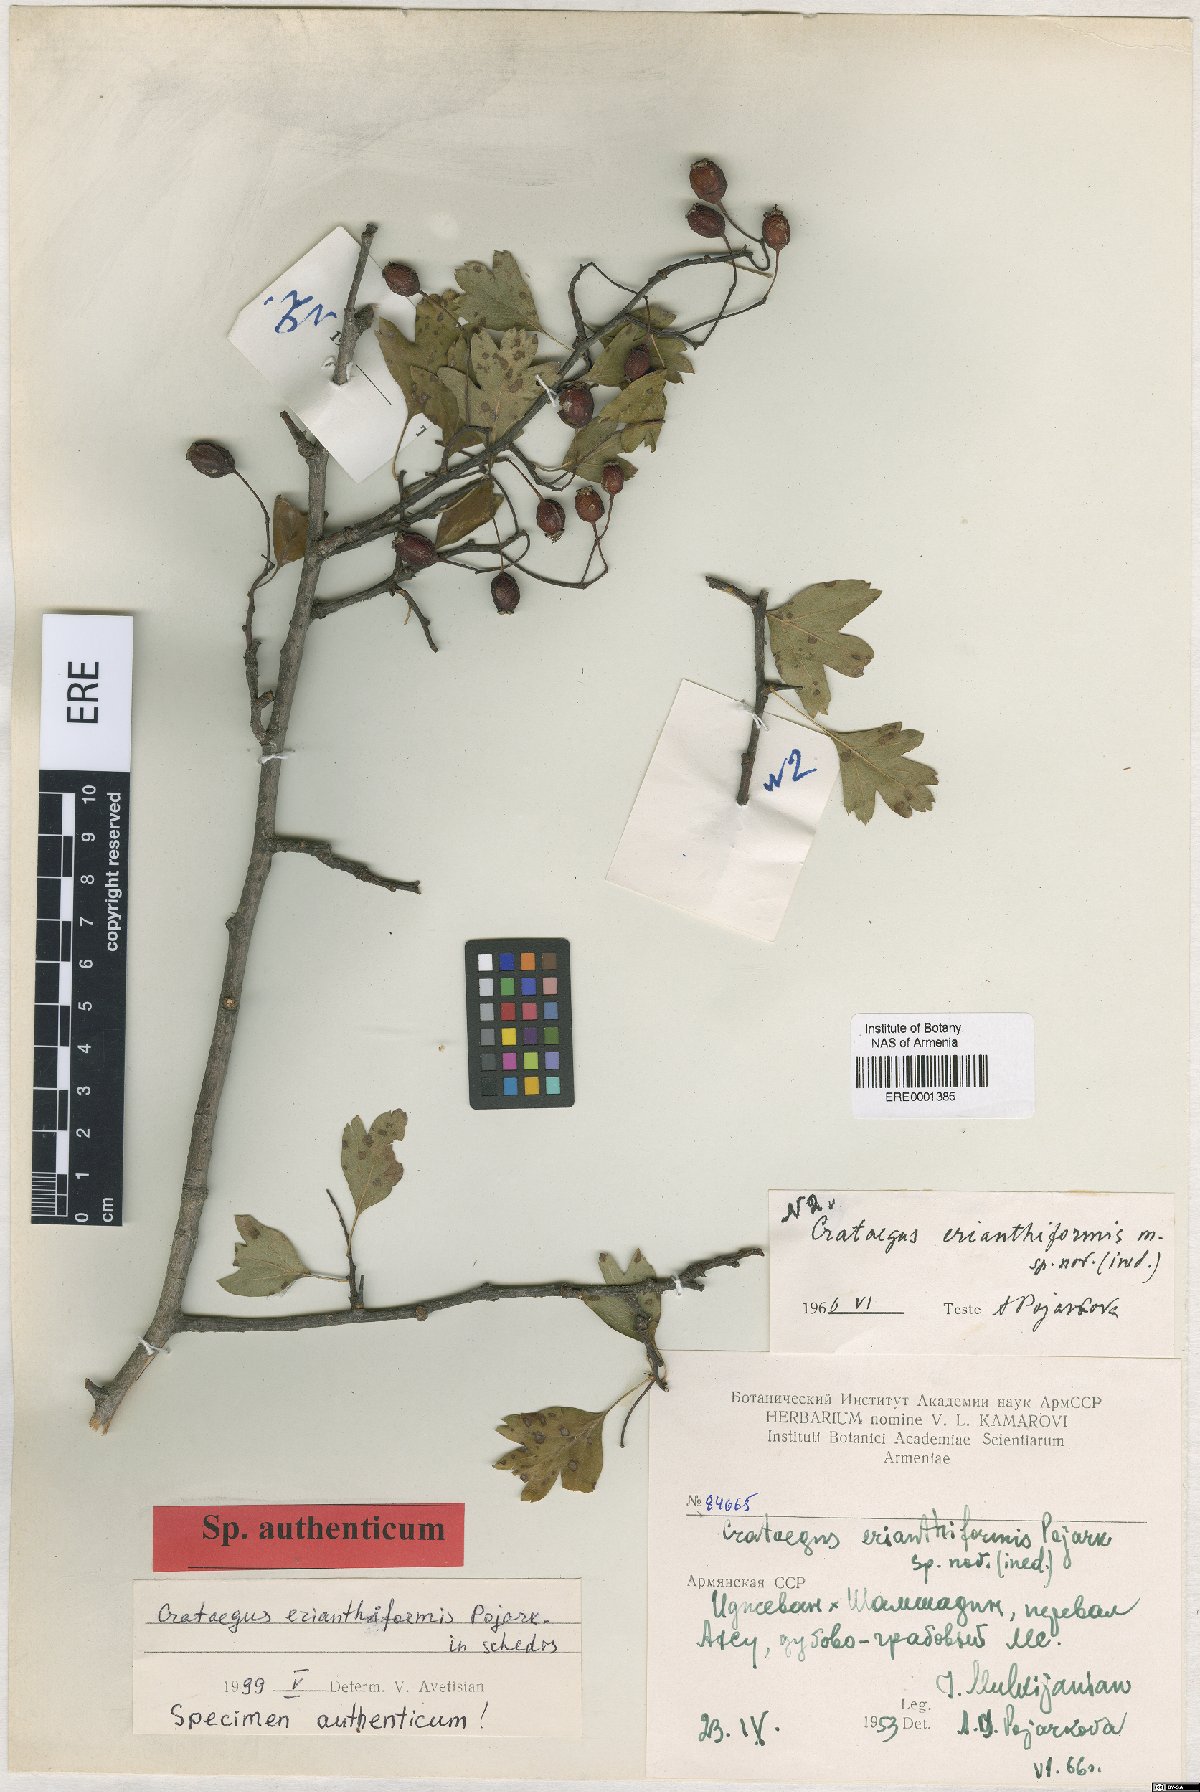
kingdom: Plantae
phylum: Tracheophyta
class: Magnoliopsida
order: Rosales
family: Rosaceae
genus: Crataegus
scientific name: Crataegus
